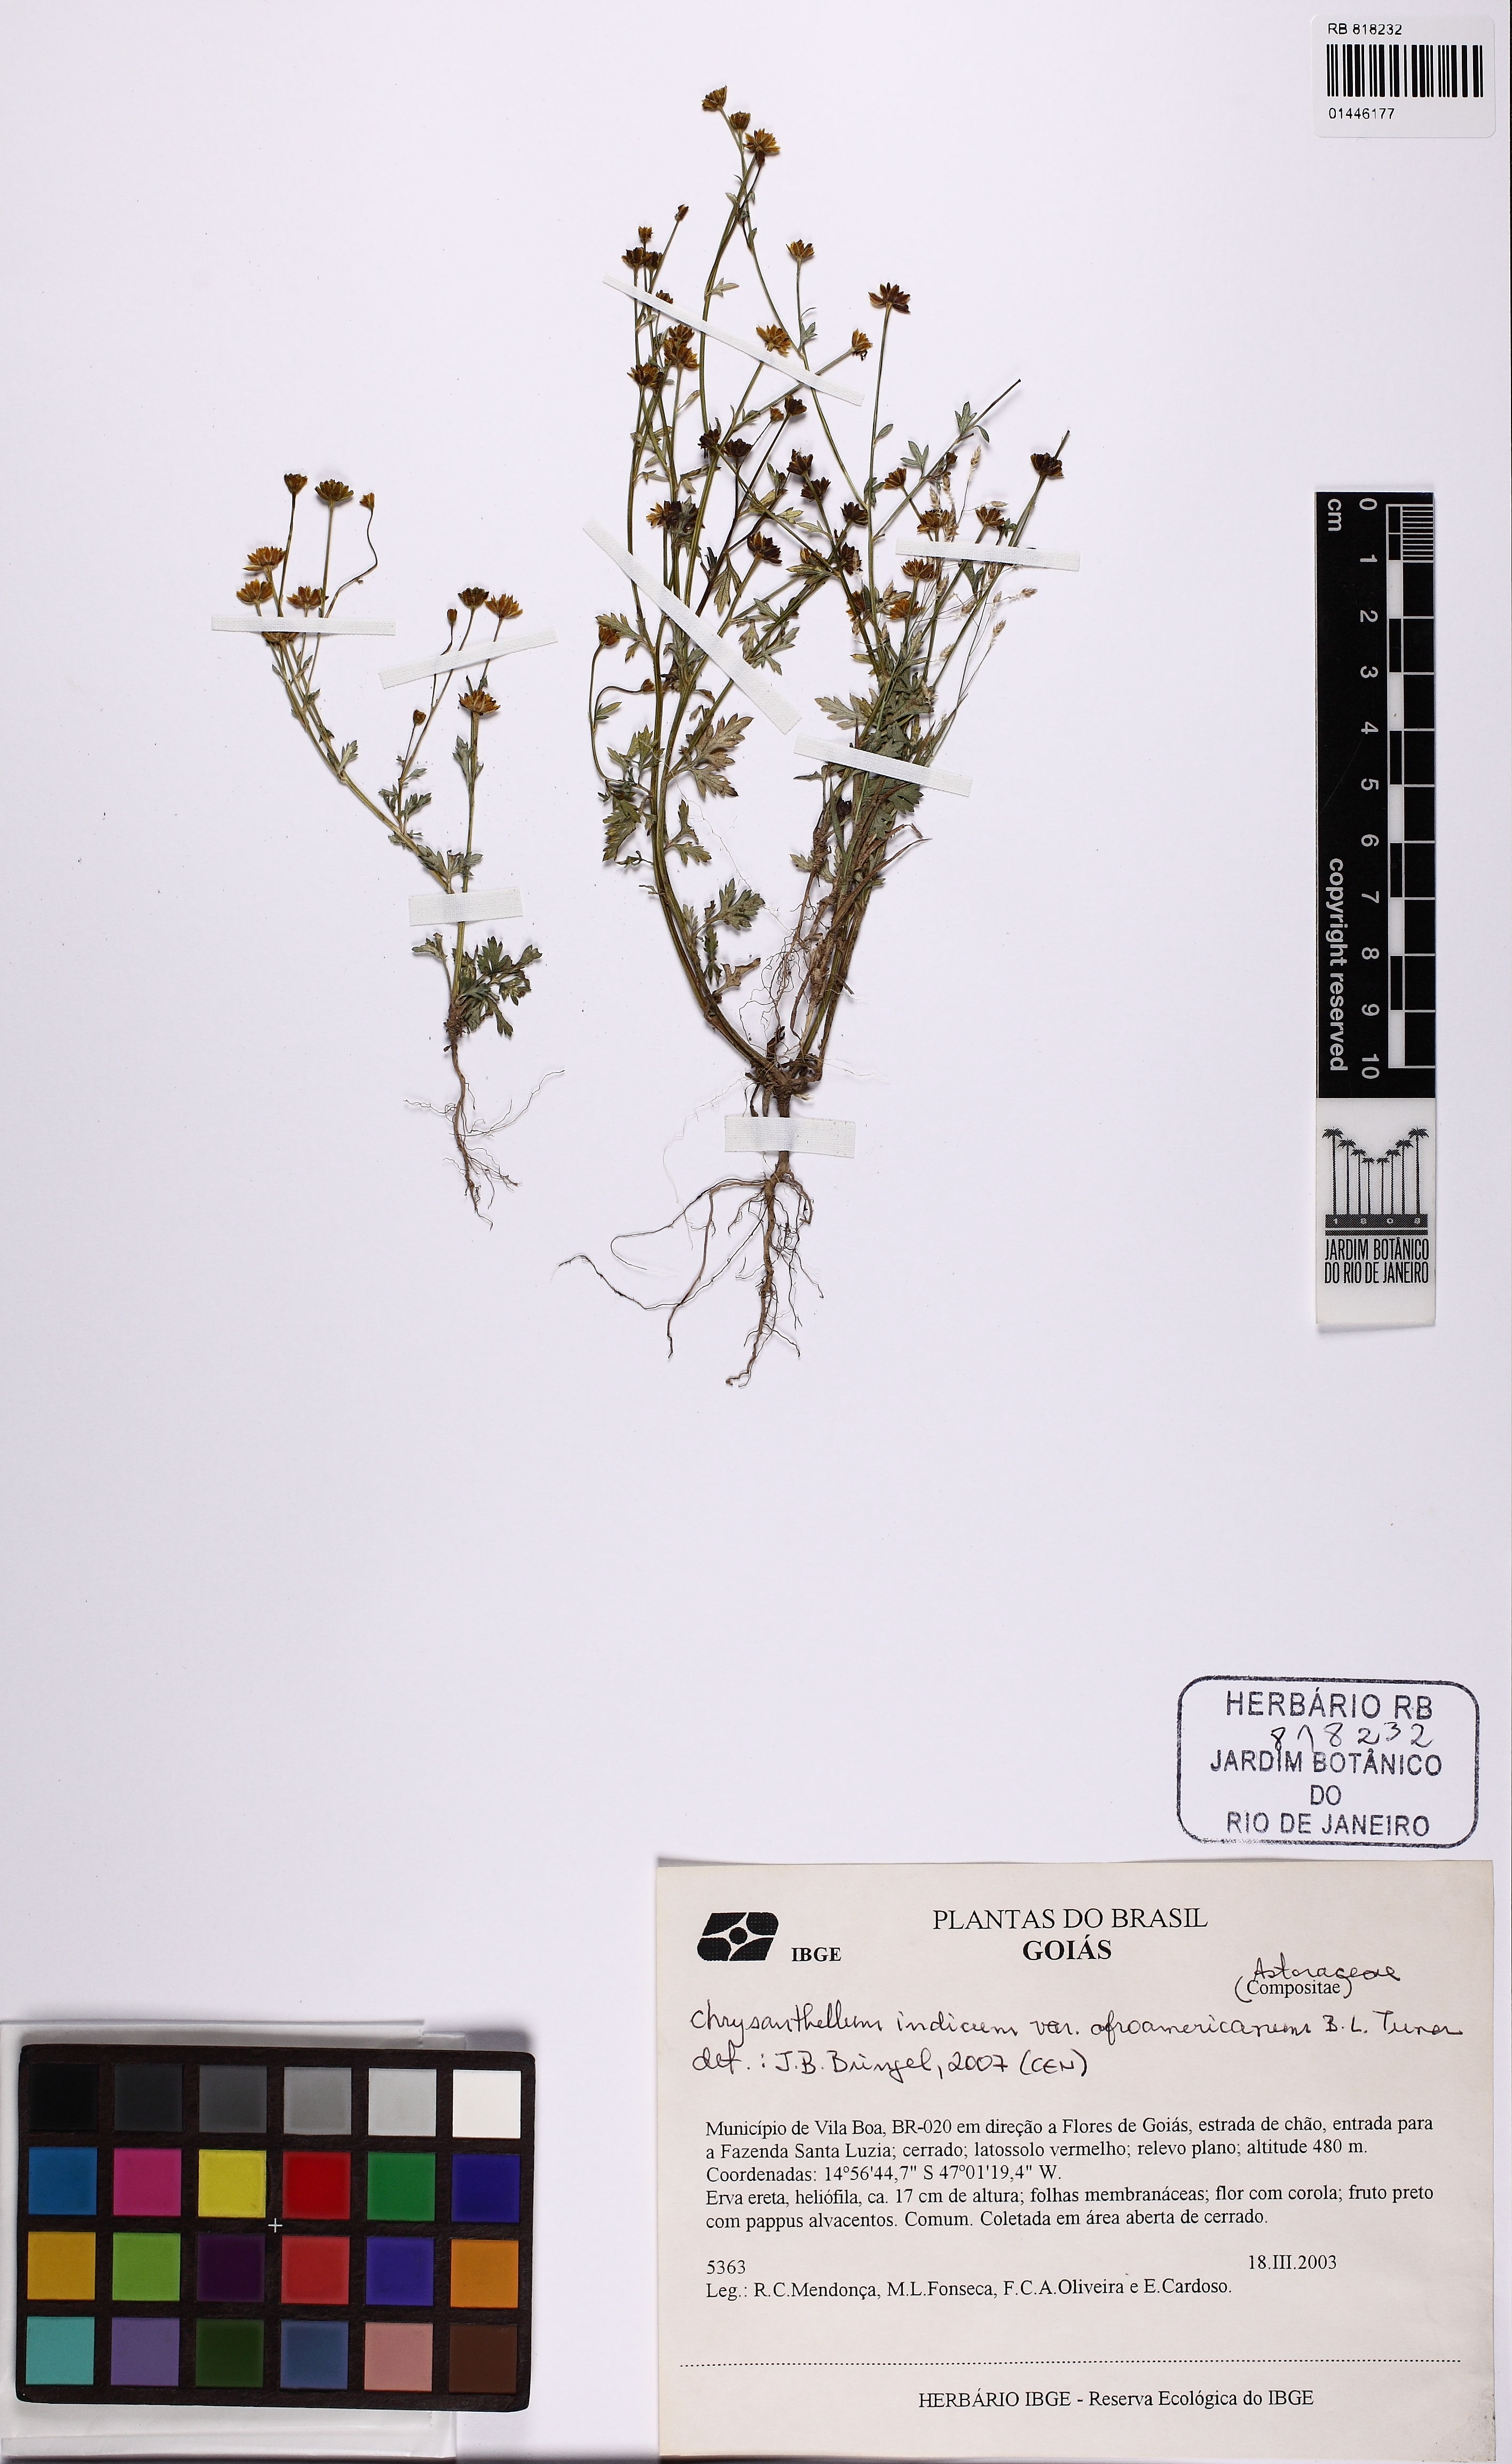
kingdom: Plantae
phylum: Tracheophyta
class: Magnoliopsida
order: Asterales
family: Asteraceae
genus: Chrysanthellum
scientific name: Chrysanthellum indicum
